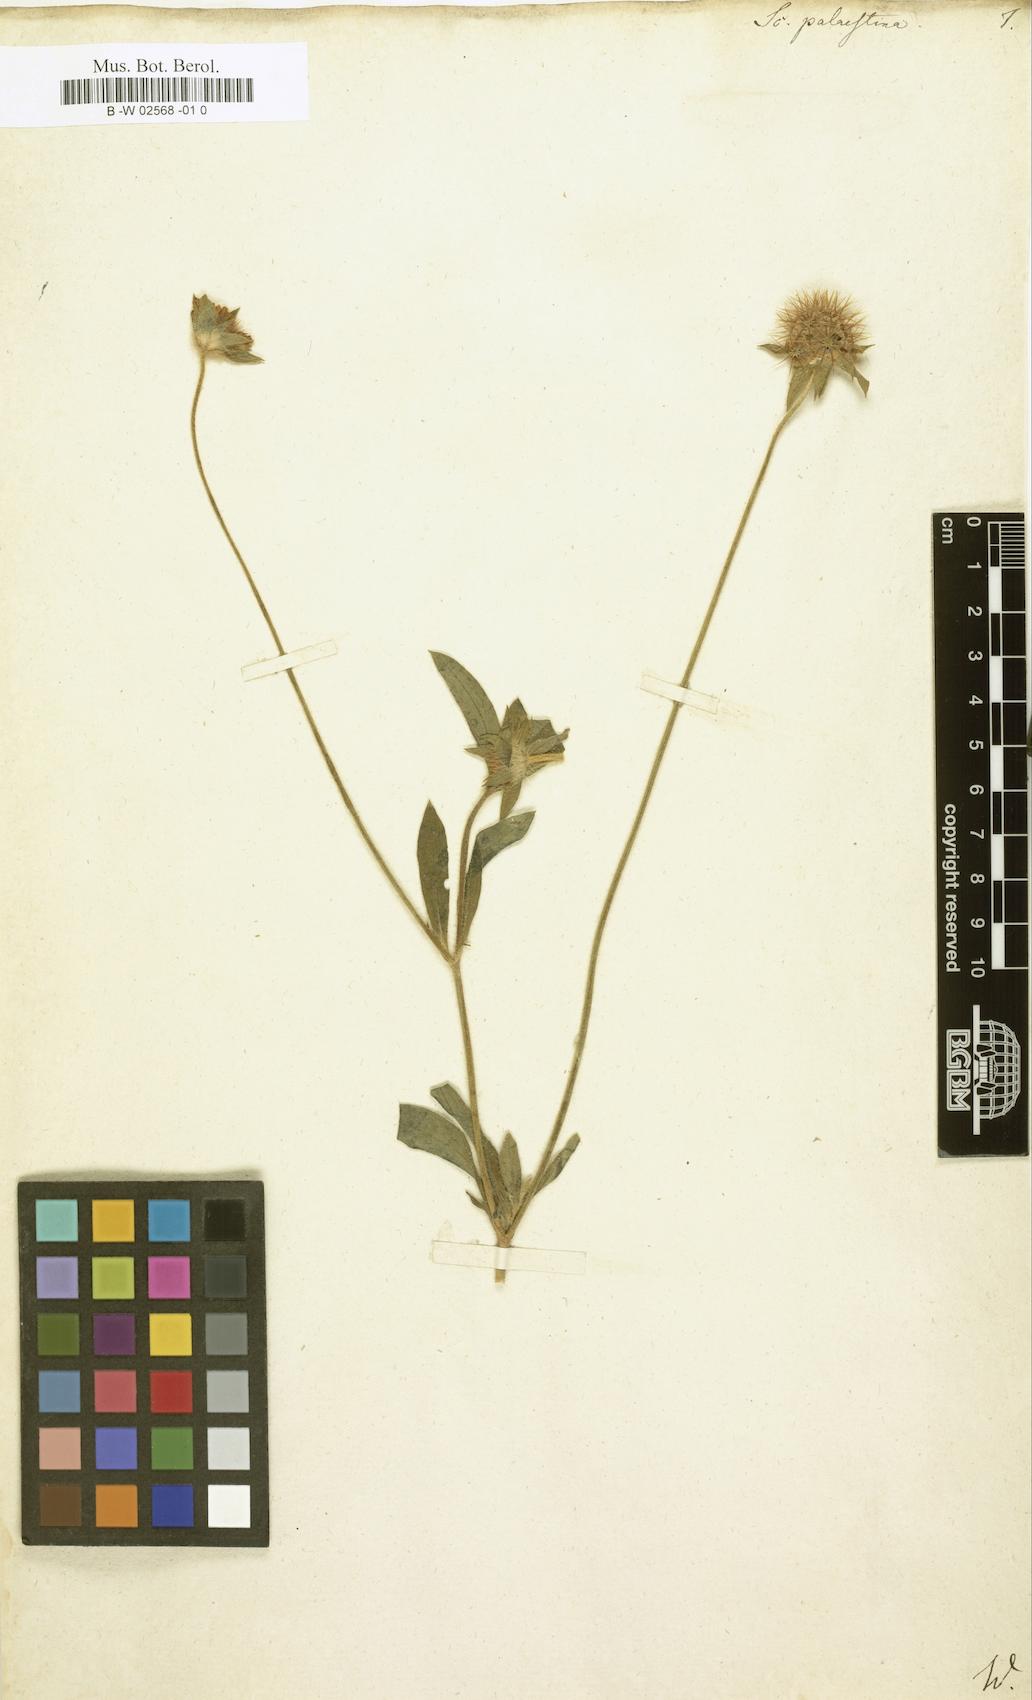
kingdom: Plantae
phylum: Tracheophyta
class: Magnoliopsida
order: Dipsacales
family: Caprifoliaceae
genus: Lomelosia
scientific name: Lomelosia
